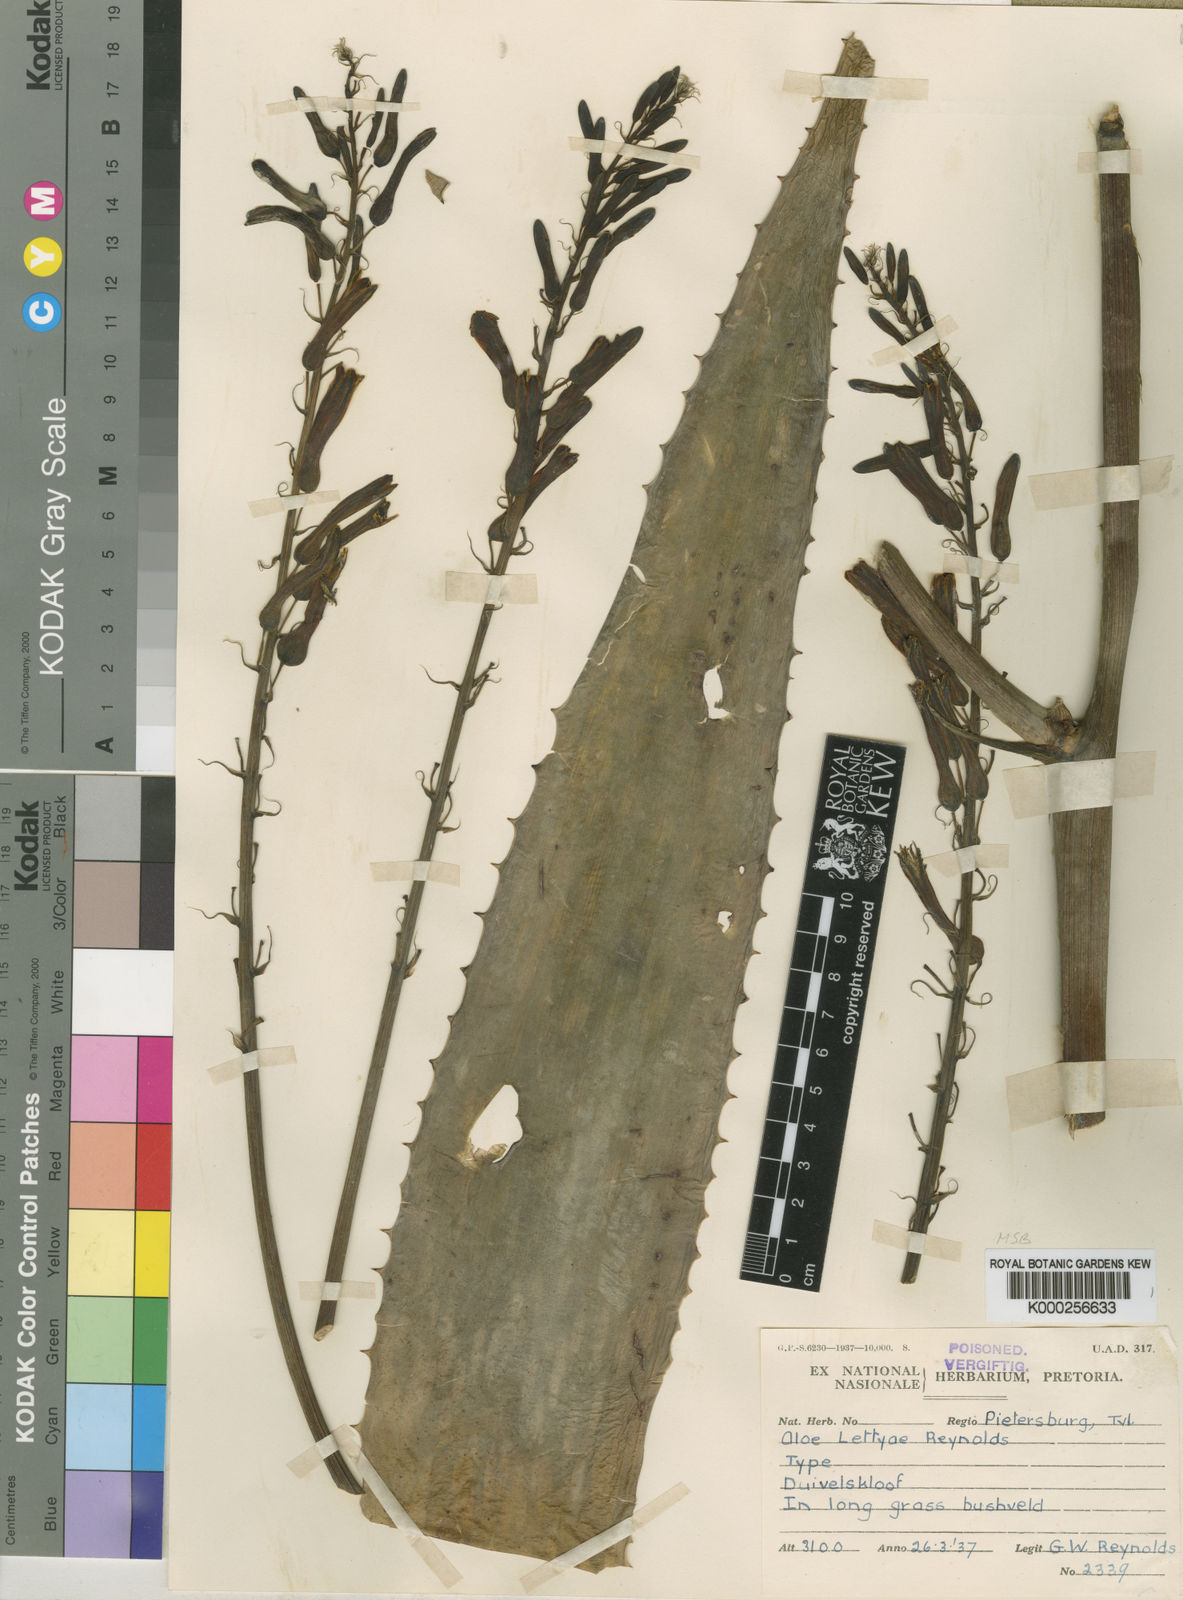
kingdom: Plantae
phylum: Tracheophyta
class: Liliopsida
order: Asparagales
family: Asphodelaceae
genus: Aloe
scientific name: Aloe lettyae
